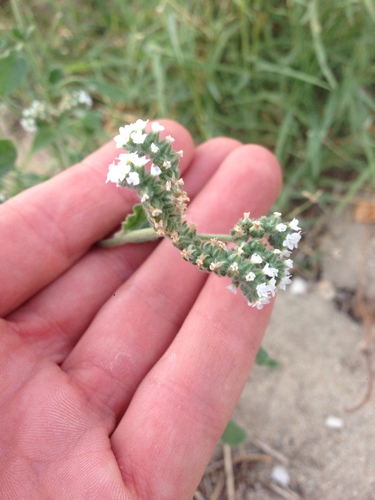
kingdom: Plantae
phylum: Tracheophyta
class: Magnoliopsida
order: Boraginales
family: Heliotropiaceae
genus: Heliotropium
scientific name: Heliotropium europaeum
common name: European heliotrope
